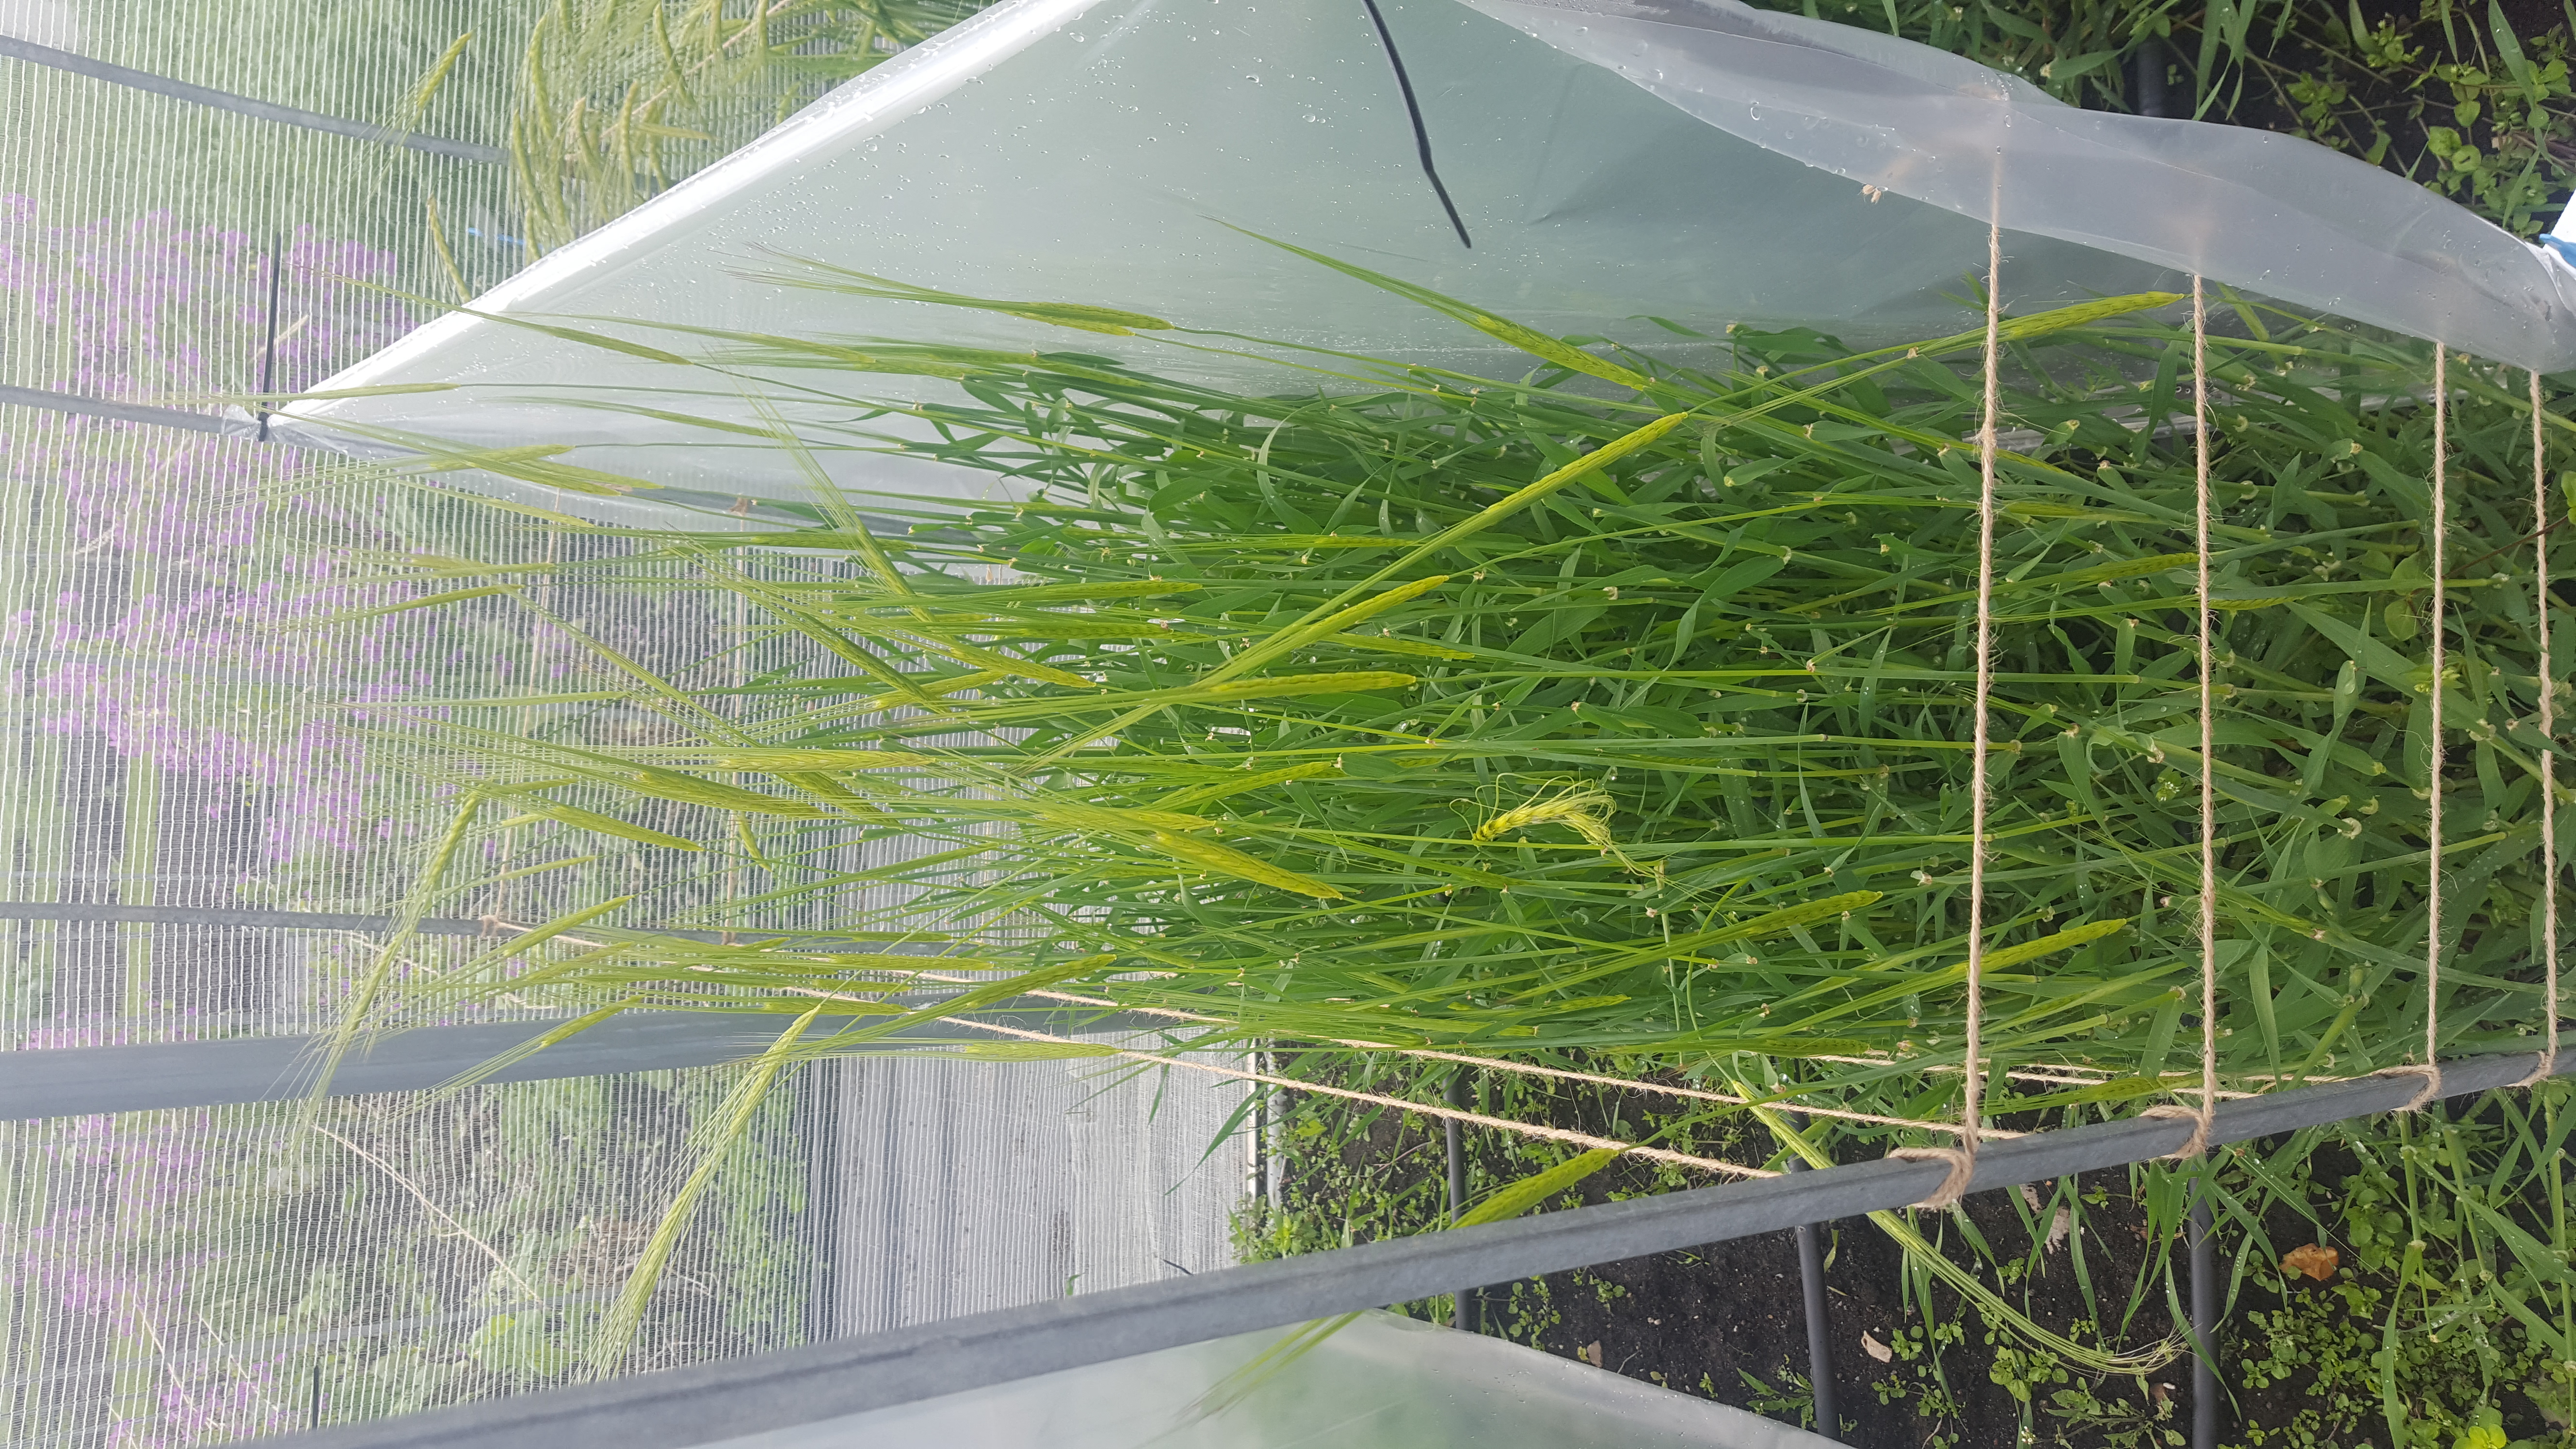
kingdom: Plantae
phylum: Tracheophyta
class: Liliopsida
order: Poales
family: Poaceae
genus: Hordeum
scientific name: Hordeum spontaneum
